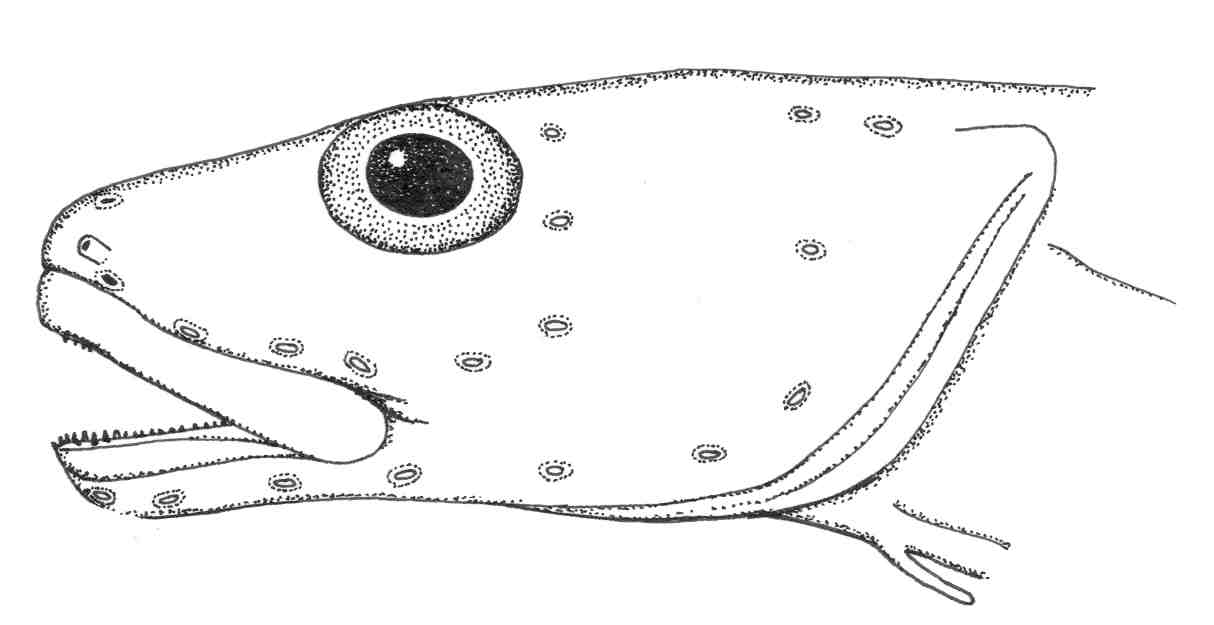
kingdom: Animalia
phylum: Chordata
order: Perciformes
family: Zoarcidae
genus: Lycenchelys
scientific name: Lycenchelys polyodon
